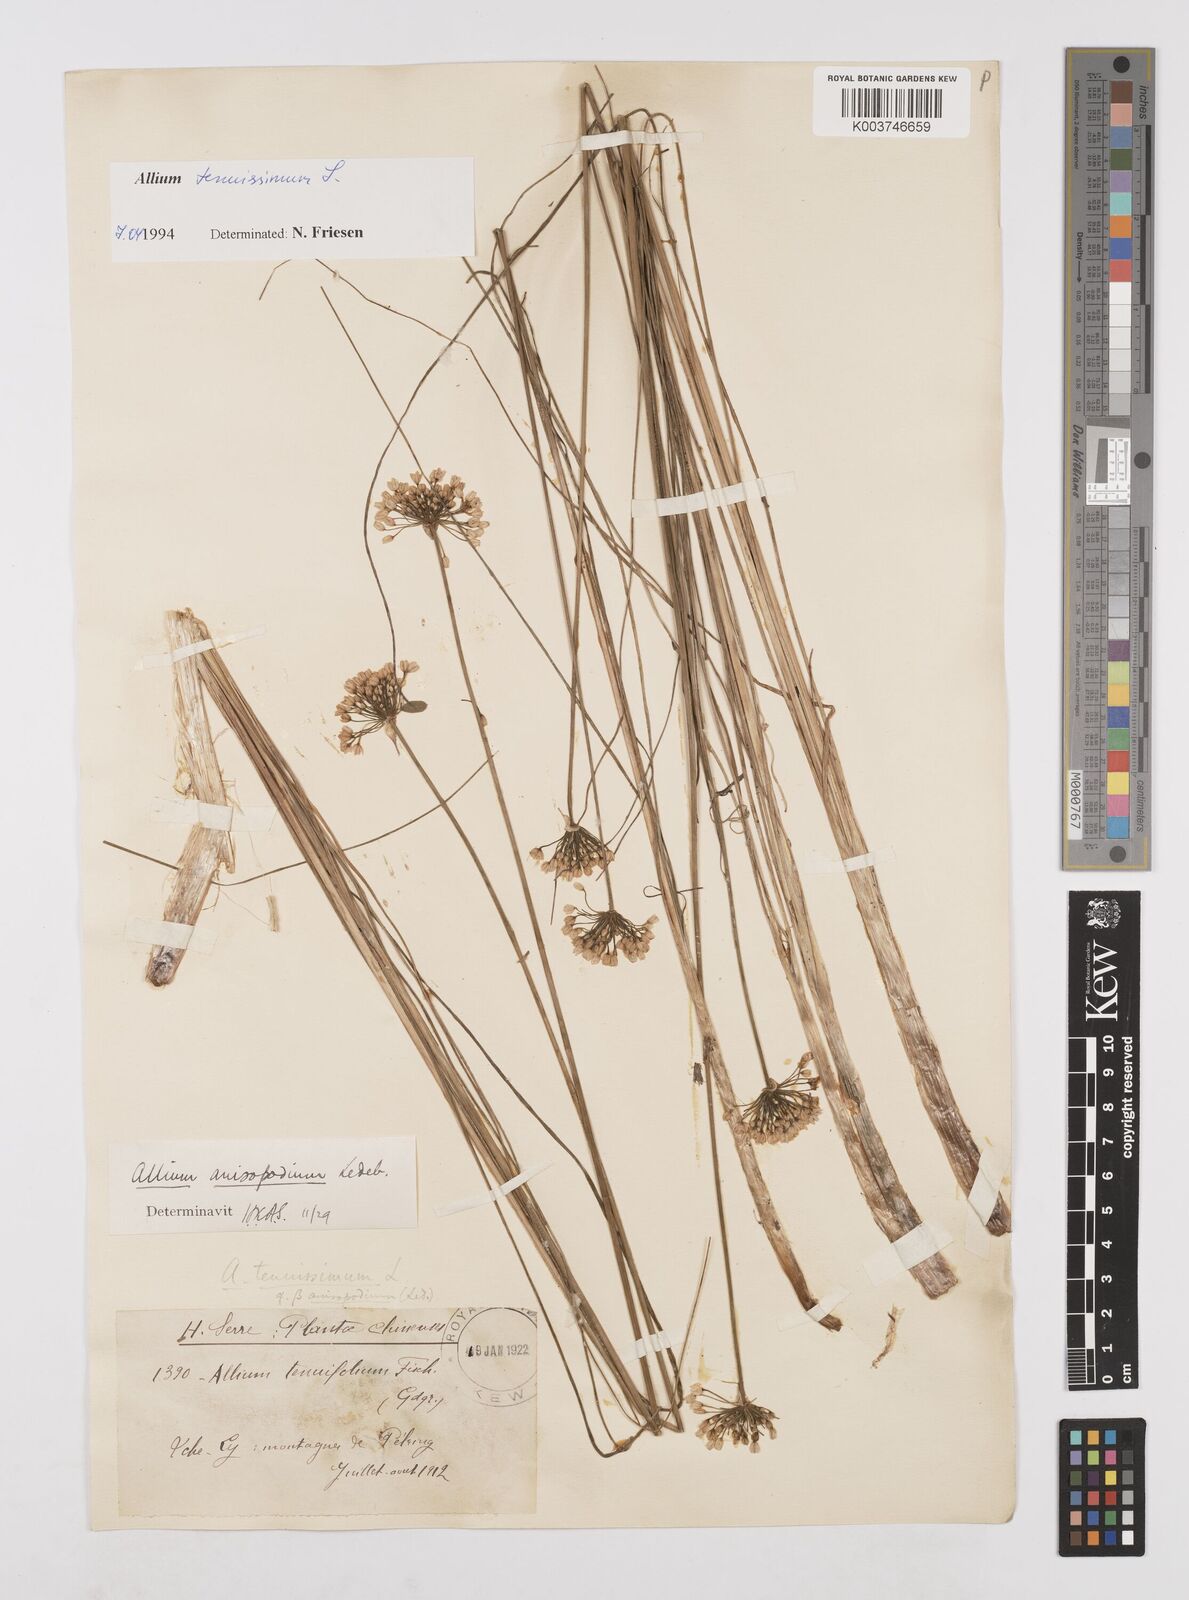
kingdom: Plantae
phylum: Tracheophyta
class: Liliopsida
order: Asparagales
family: Amaryllidaceae
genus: Allium
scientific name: Allium anisopodium
